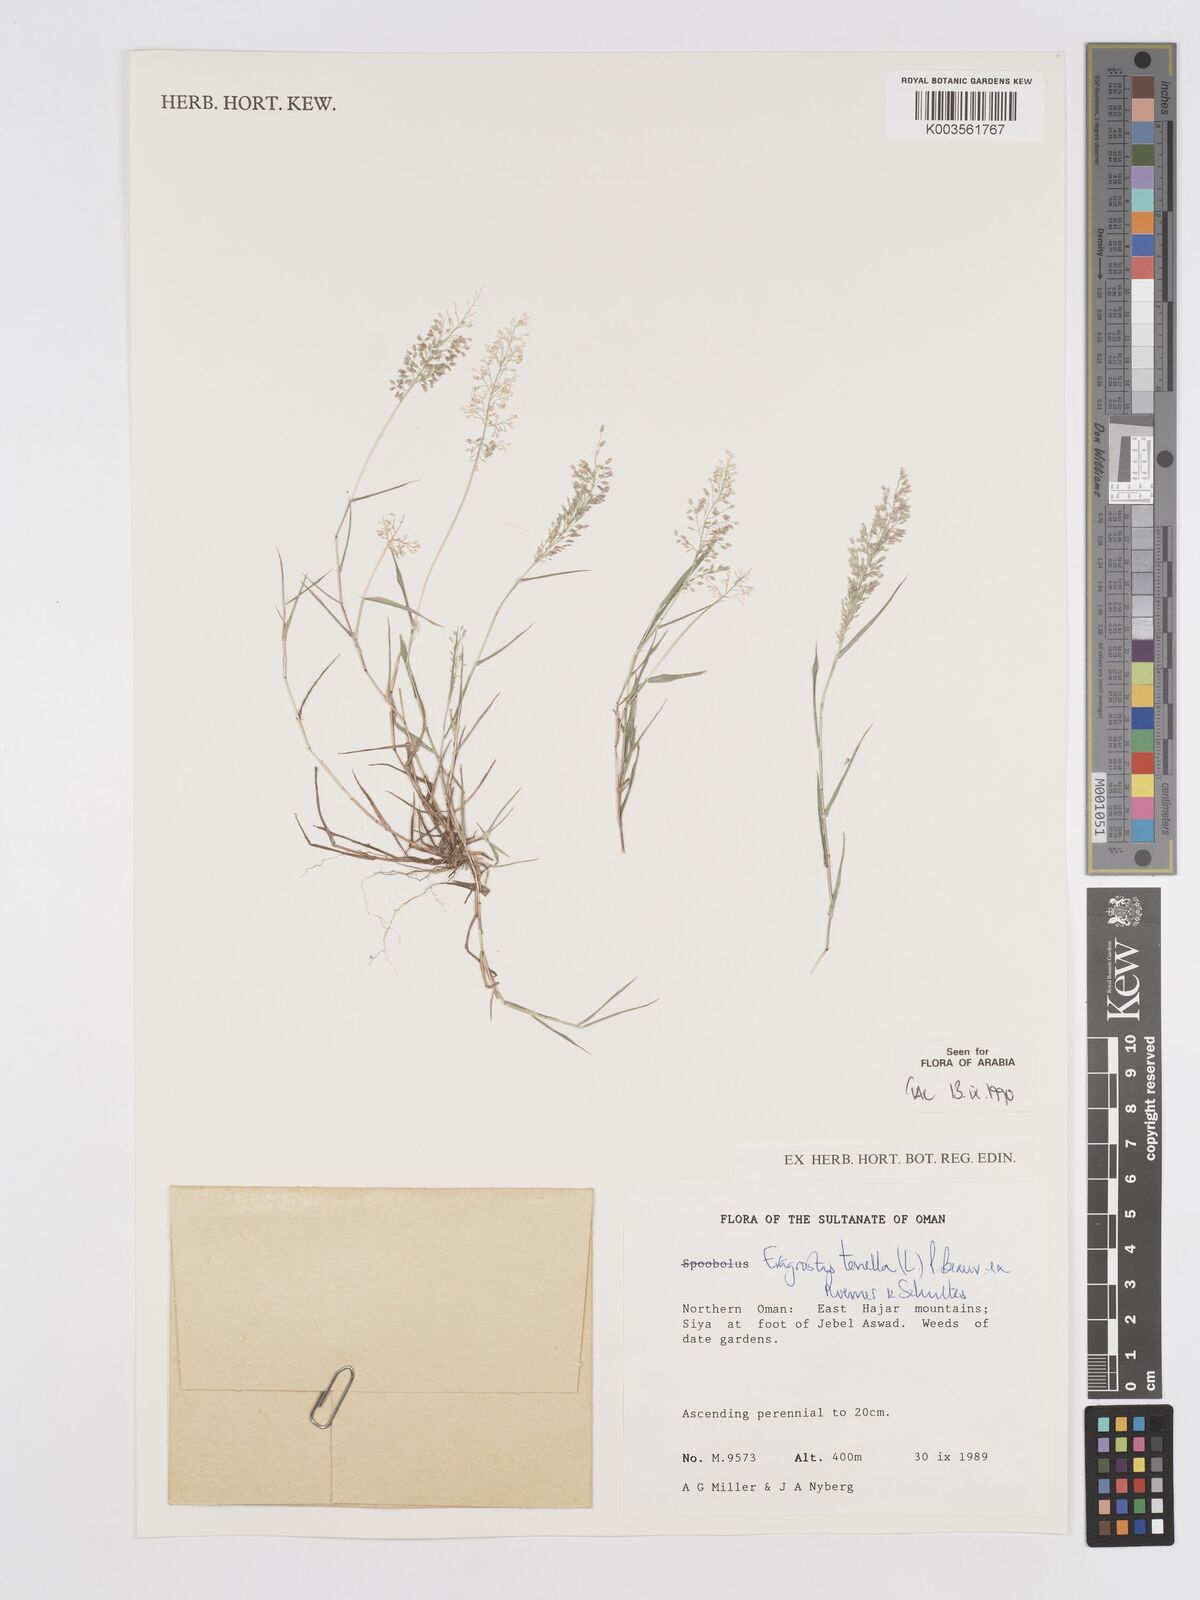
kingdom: Plantae
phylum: Tracheophyta
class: Liliopsida
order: Poales
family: Poaceae
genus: Eragrostis
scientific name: Eragrostis tenella
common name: Japanese lovegrass
